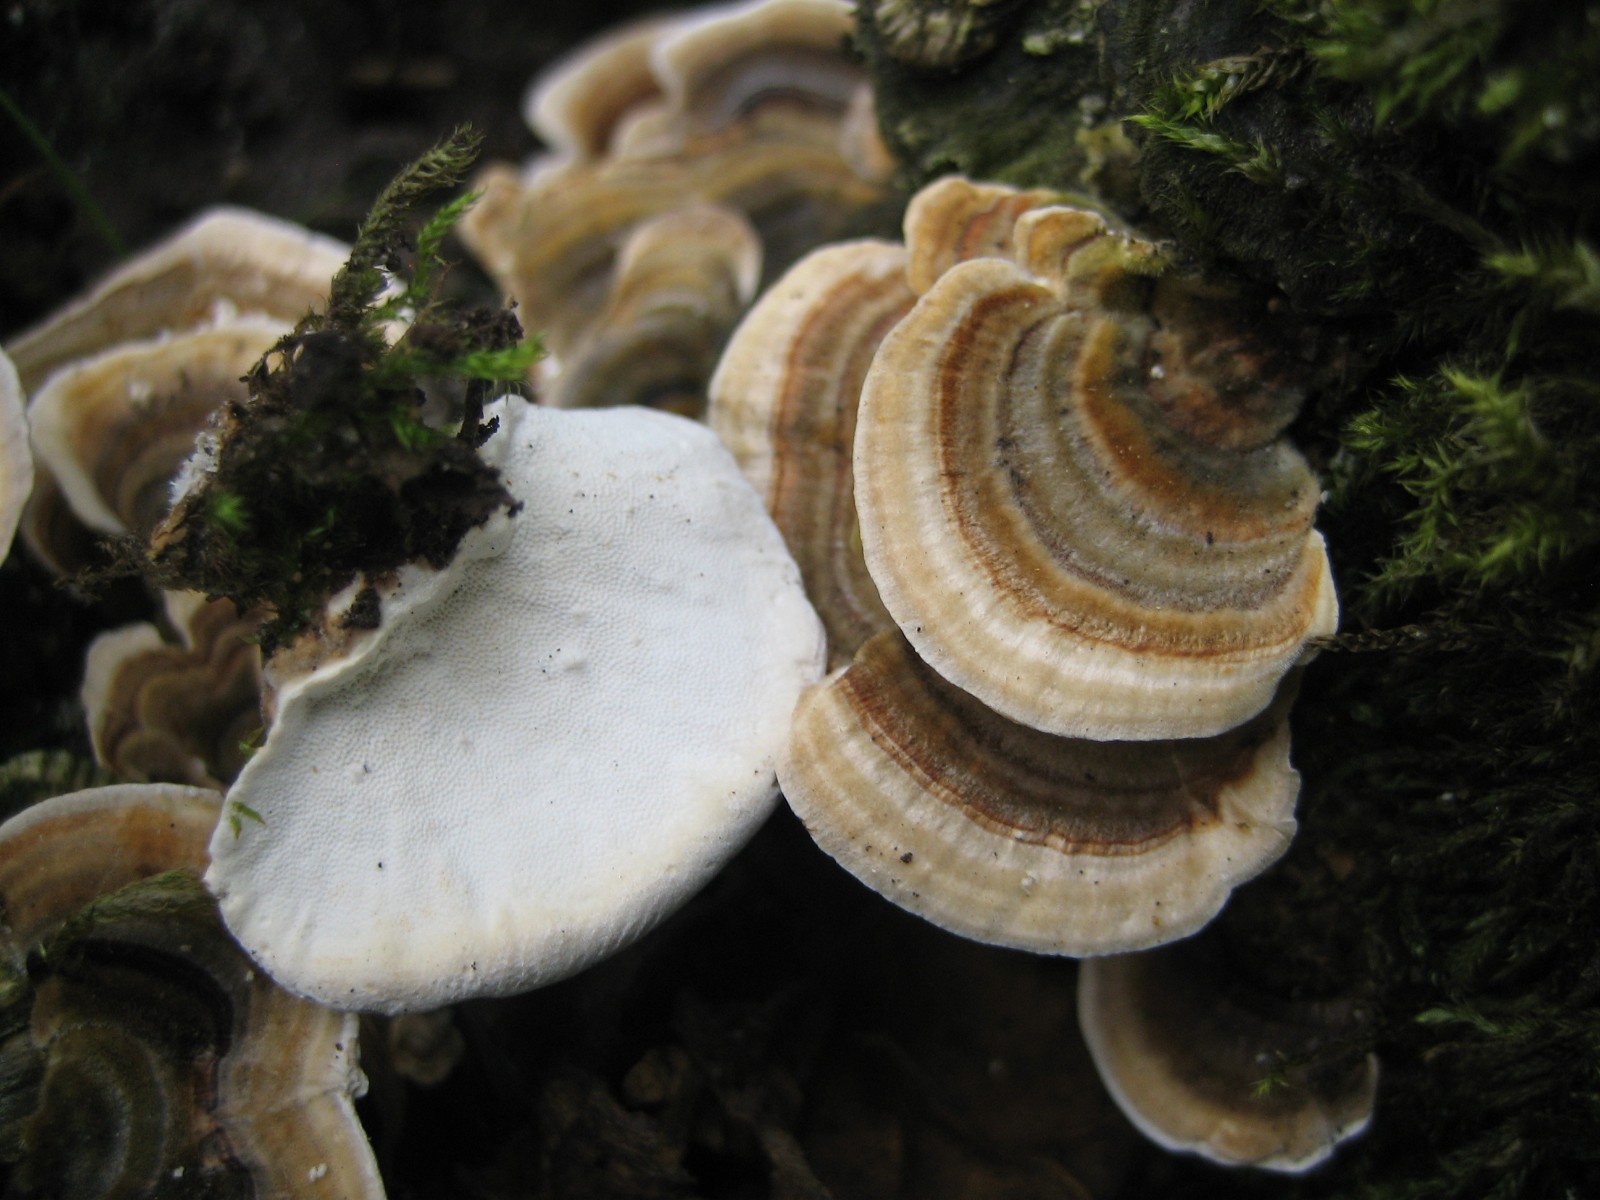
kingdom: Fungi
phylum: Basidiomycota
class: Agaricomycetes
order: Polyporales
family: Polyporaceae
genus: Trametes
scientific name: Trametes versicolor
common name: broget læderporesvamp
